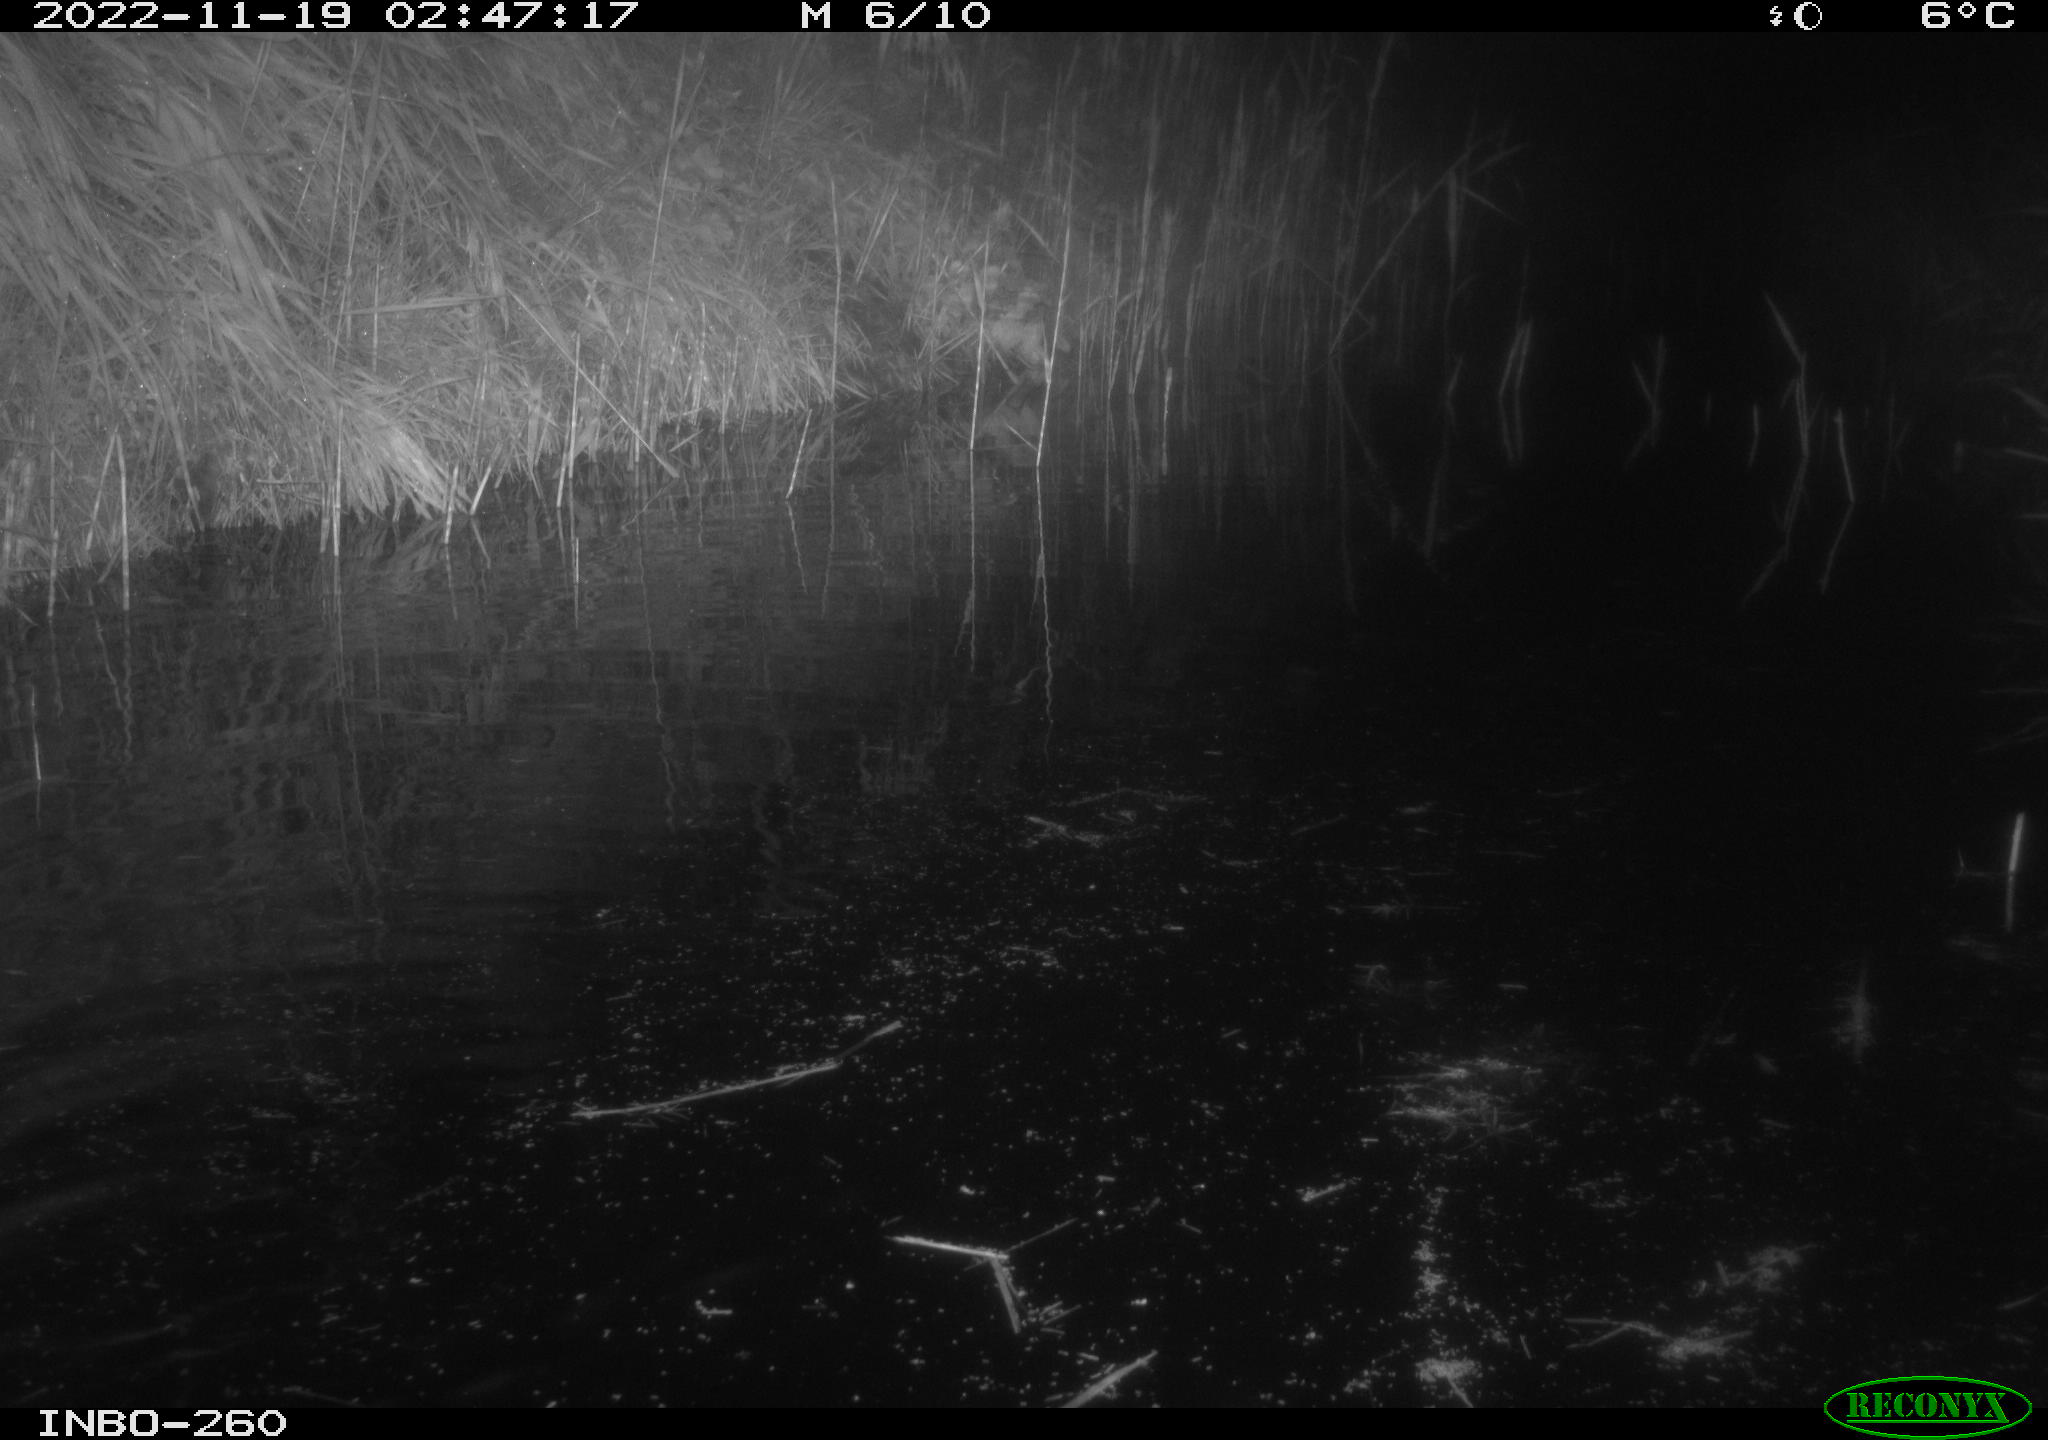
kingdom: Animalia
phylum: Chordata
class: Mammalia
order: Rodentia
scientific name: Rodentia
